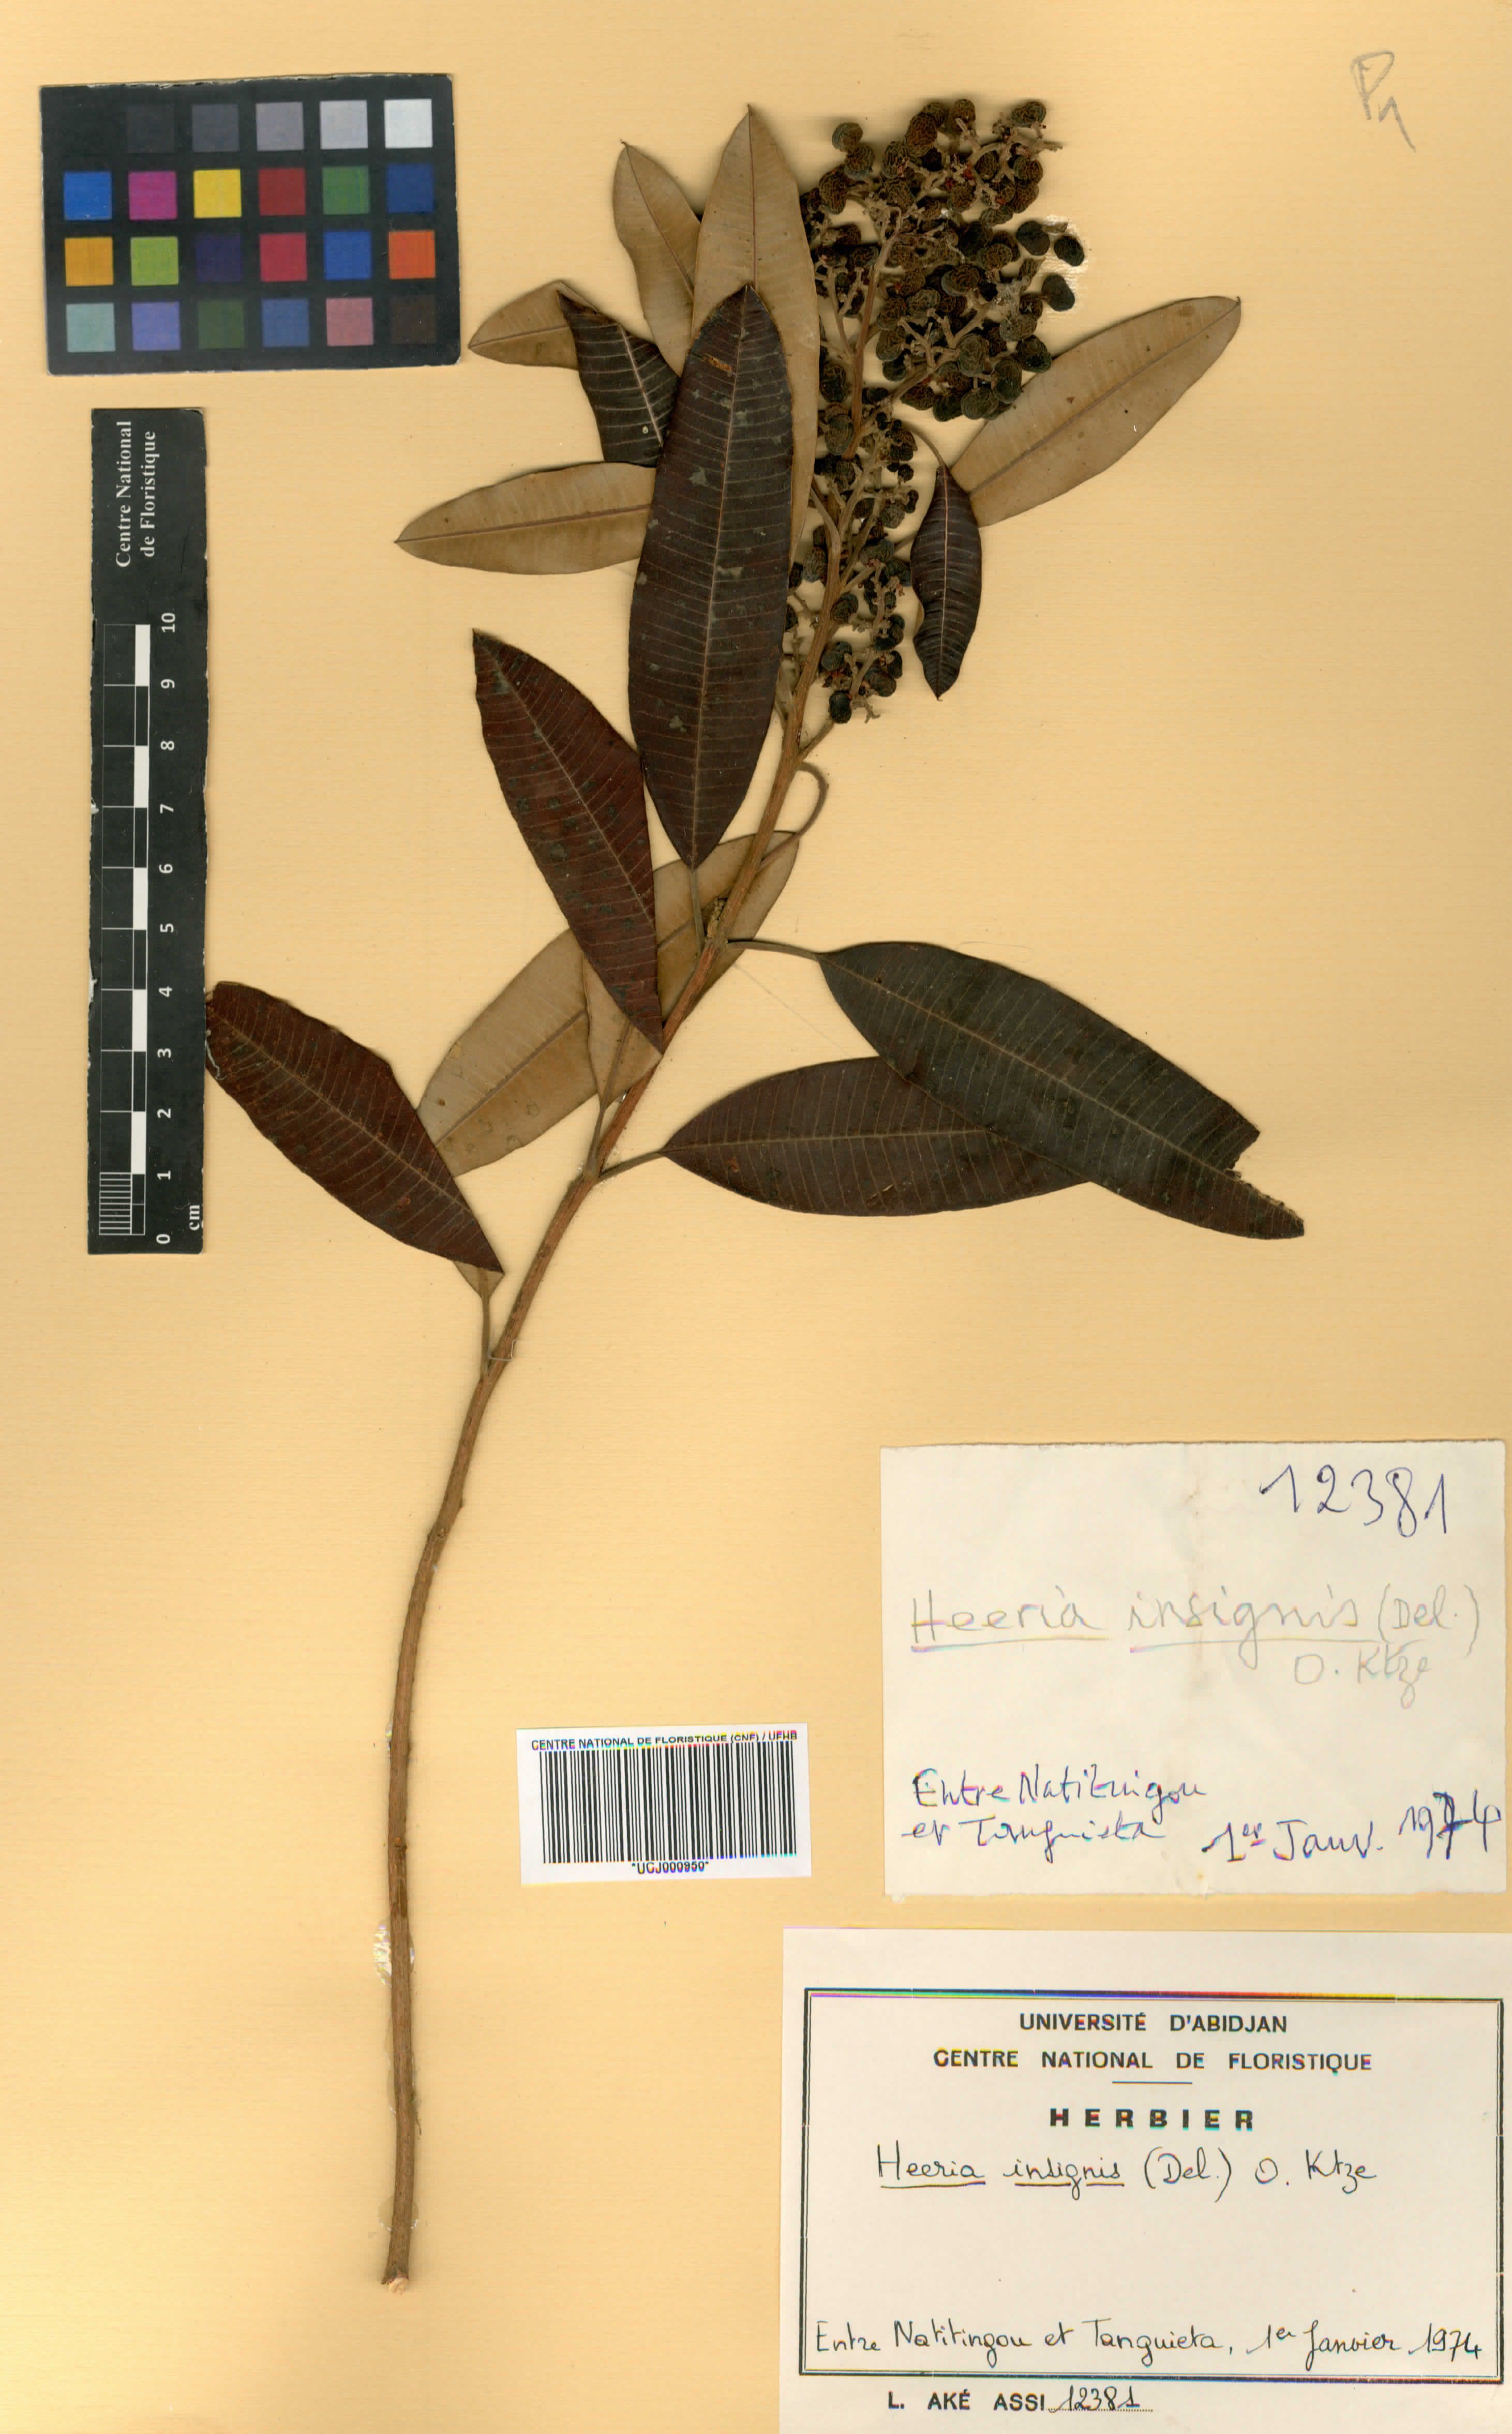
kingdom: Plantae
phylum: Tracheophyta
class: Magnoliopsida
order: Sapindales
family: Anacardiaceae
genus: Ozoroa
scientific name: Ozoroa
